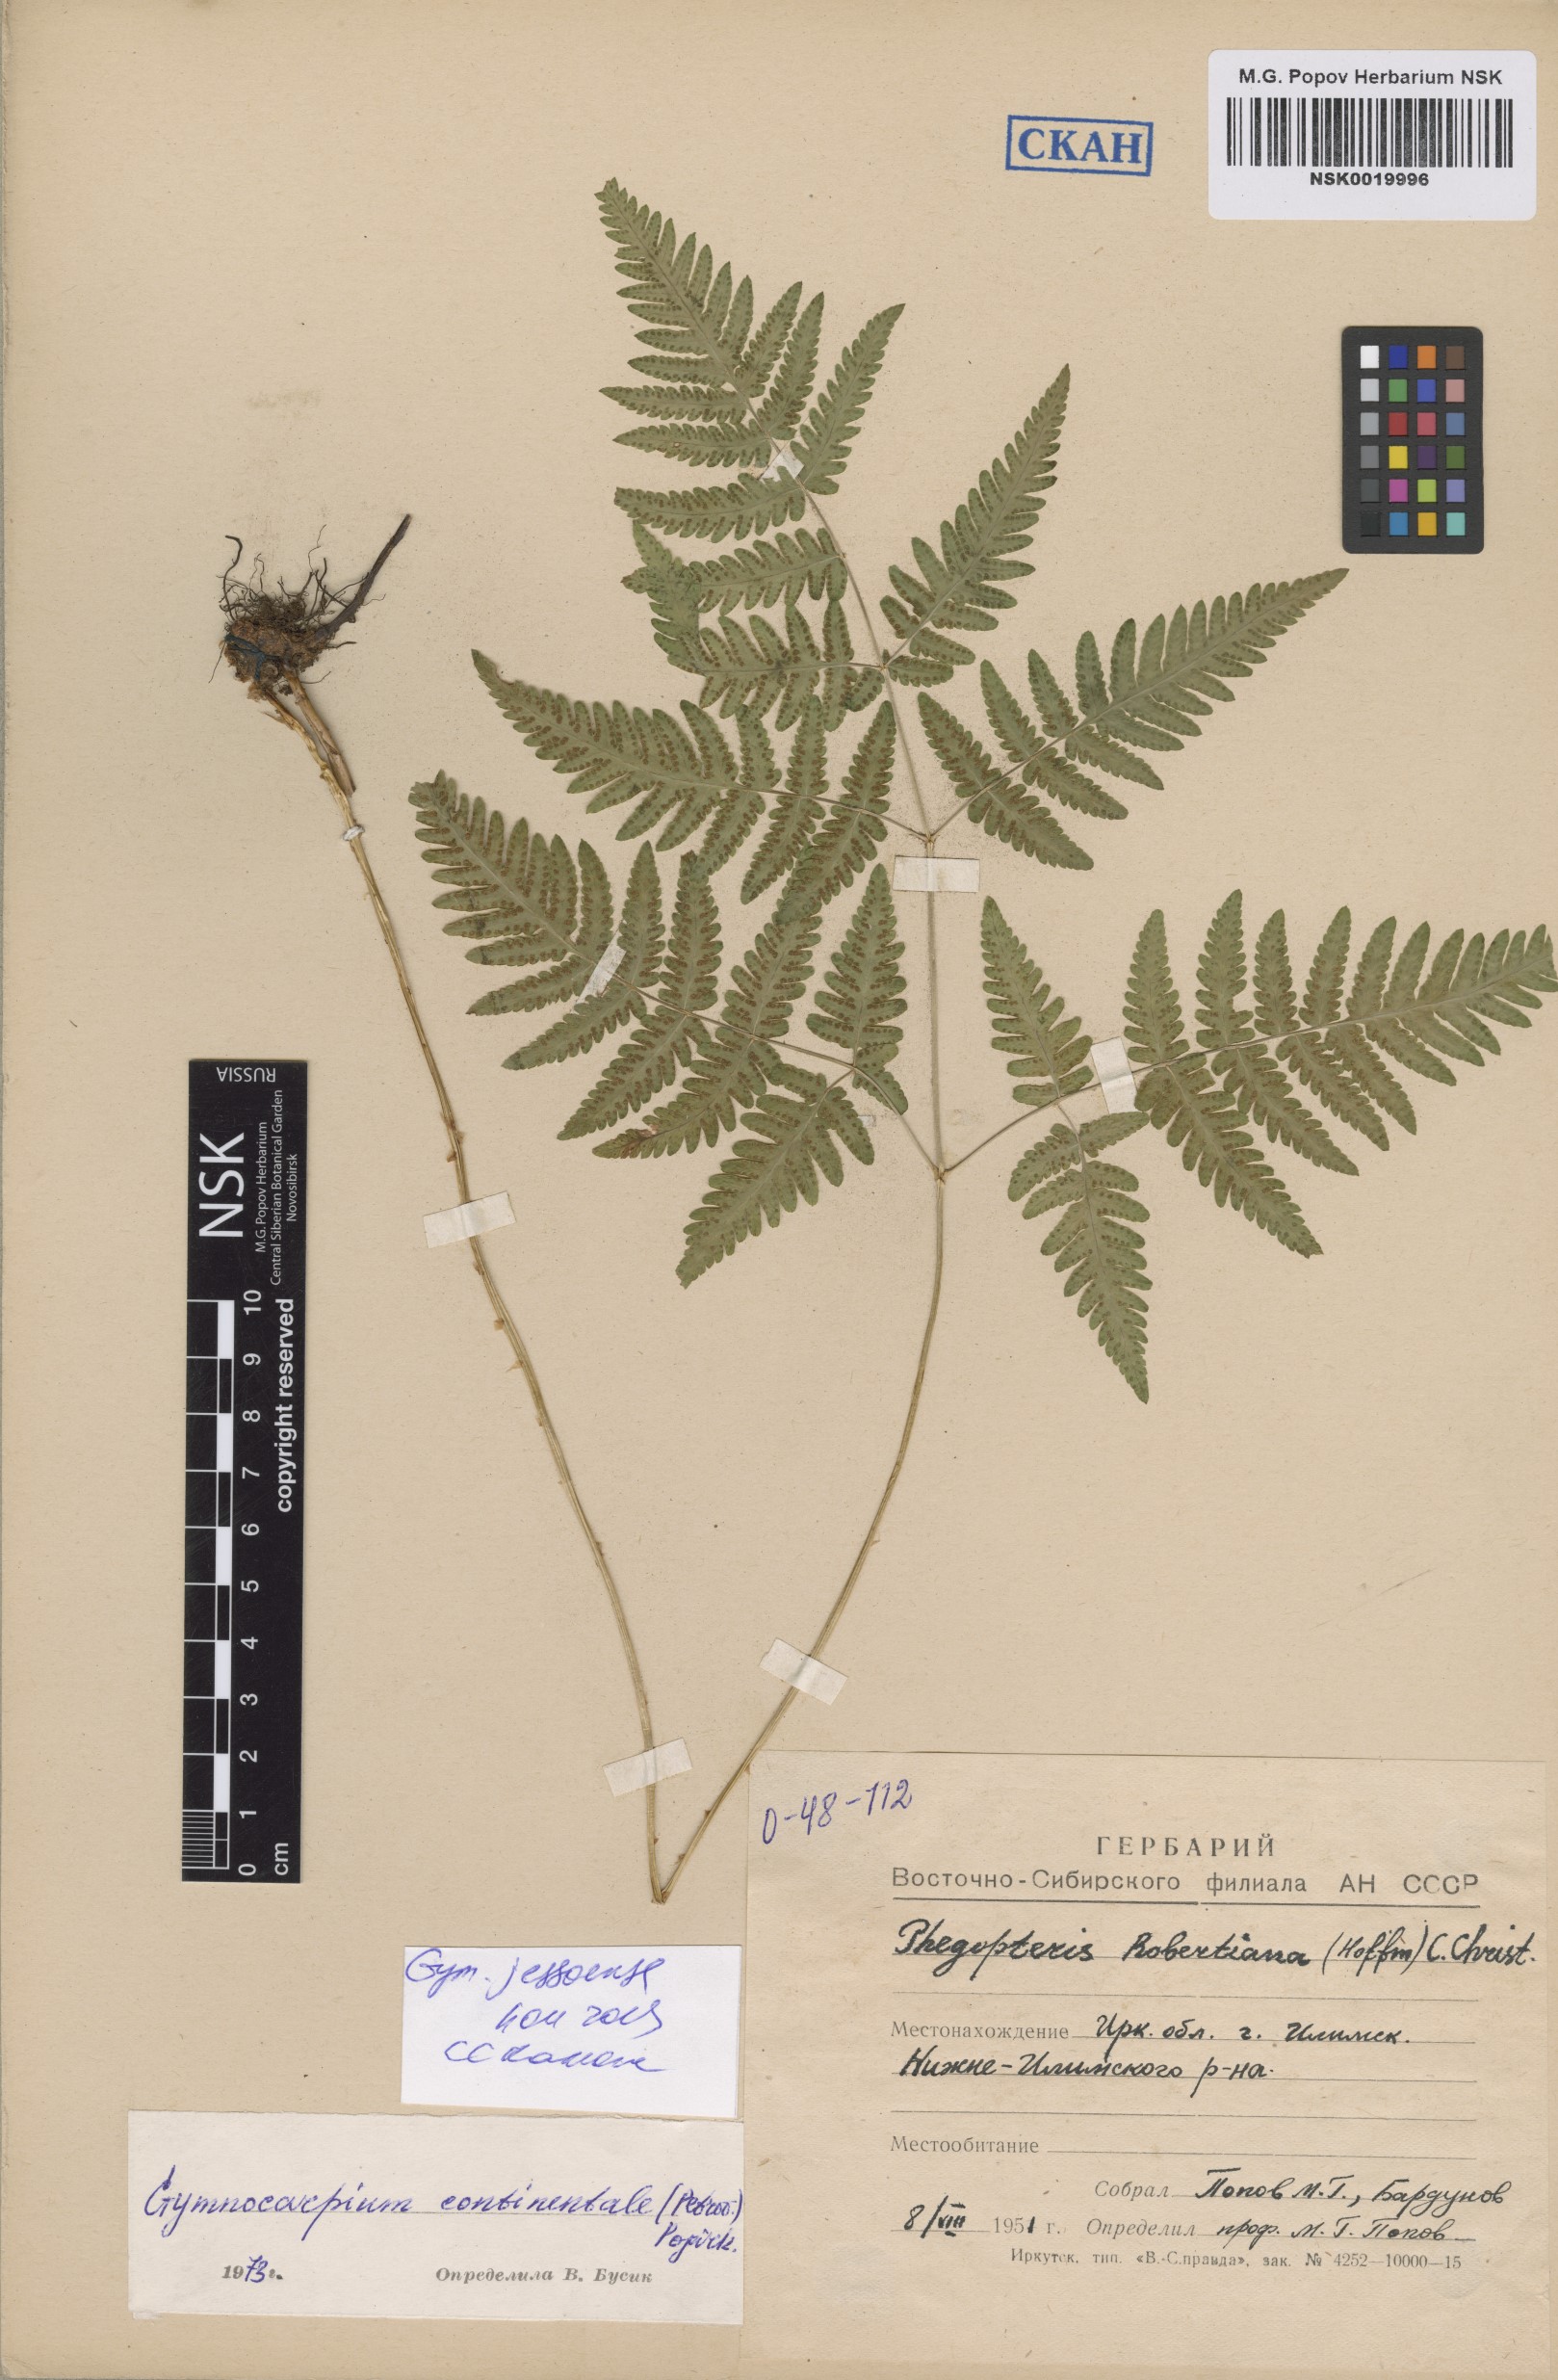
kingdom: Plantae
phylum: Tracheophyta
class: Polypodiopsida
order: Polypodiales
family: Cystopteridaceae
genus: Gymnocarpium
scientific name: Gymnocarpium jessoense
